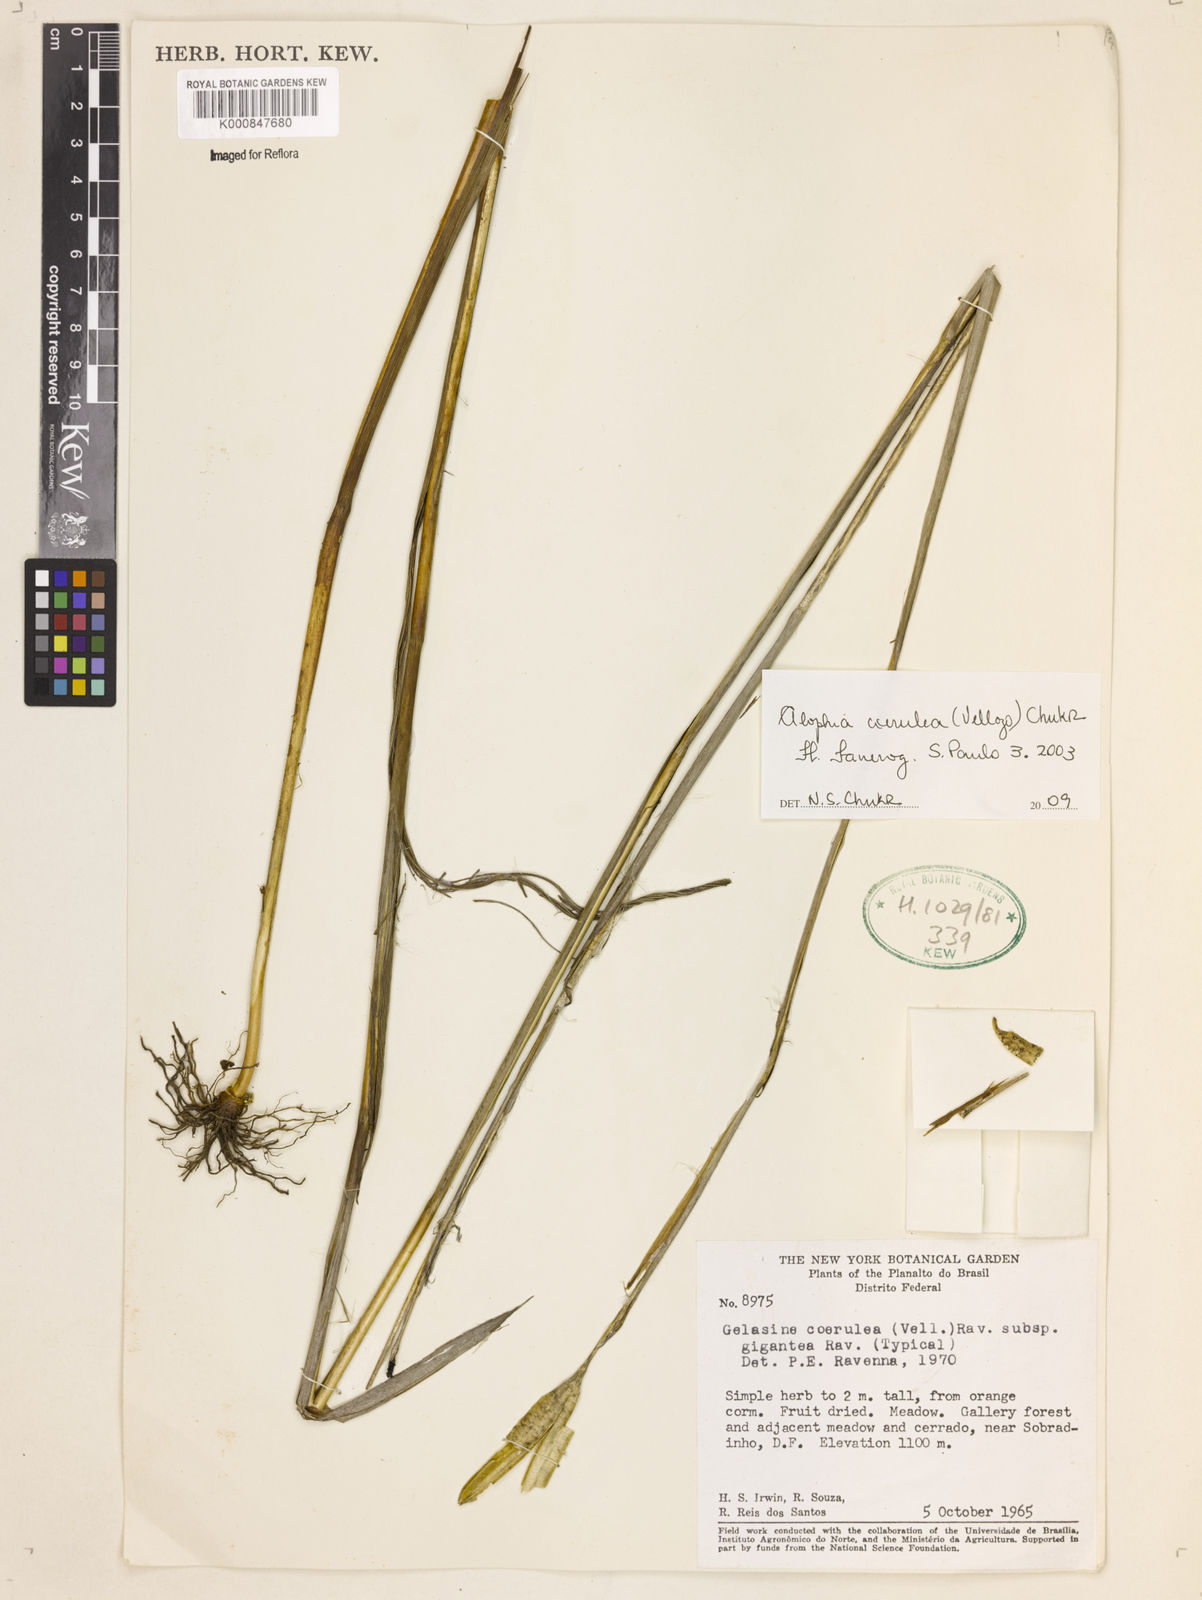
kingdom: Plantae
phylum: Tracheophyta
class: Liliopsida
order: Asparagales
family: Iridaceae
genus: Gelasine
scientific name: Gelasine coerulea
